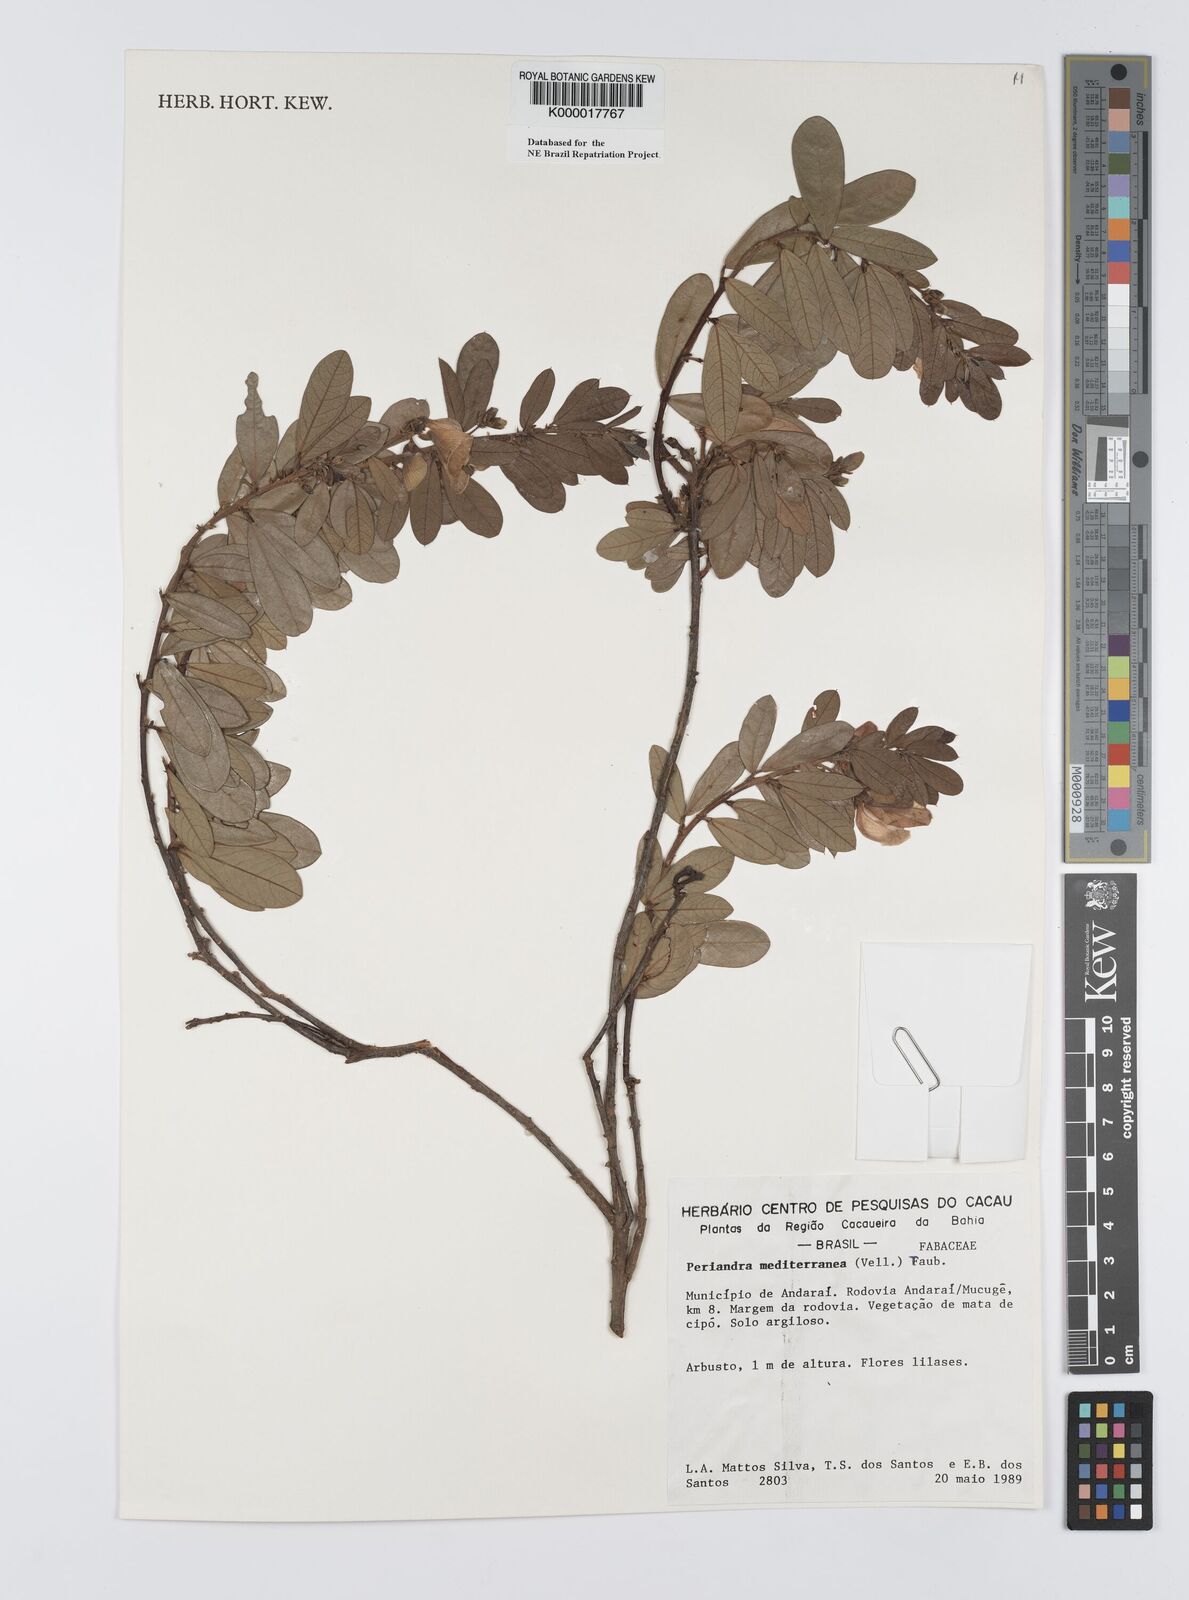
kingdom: Plantae
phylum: Tracheophyta
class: Magnoliopsida
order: Fabales
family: Fabaceae
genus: Periandra
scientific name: Periandra mediterranea
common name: Brazilian licorice
